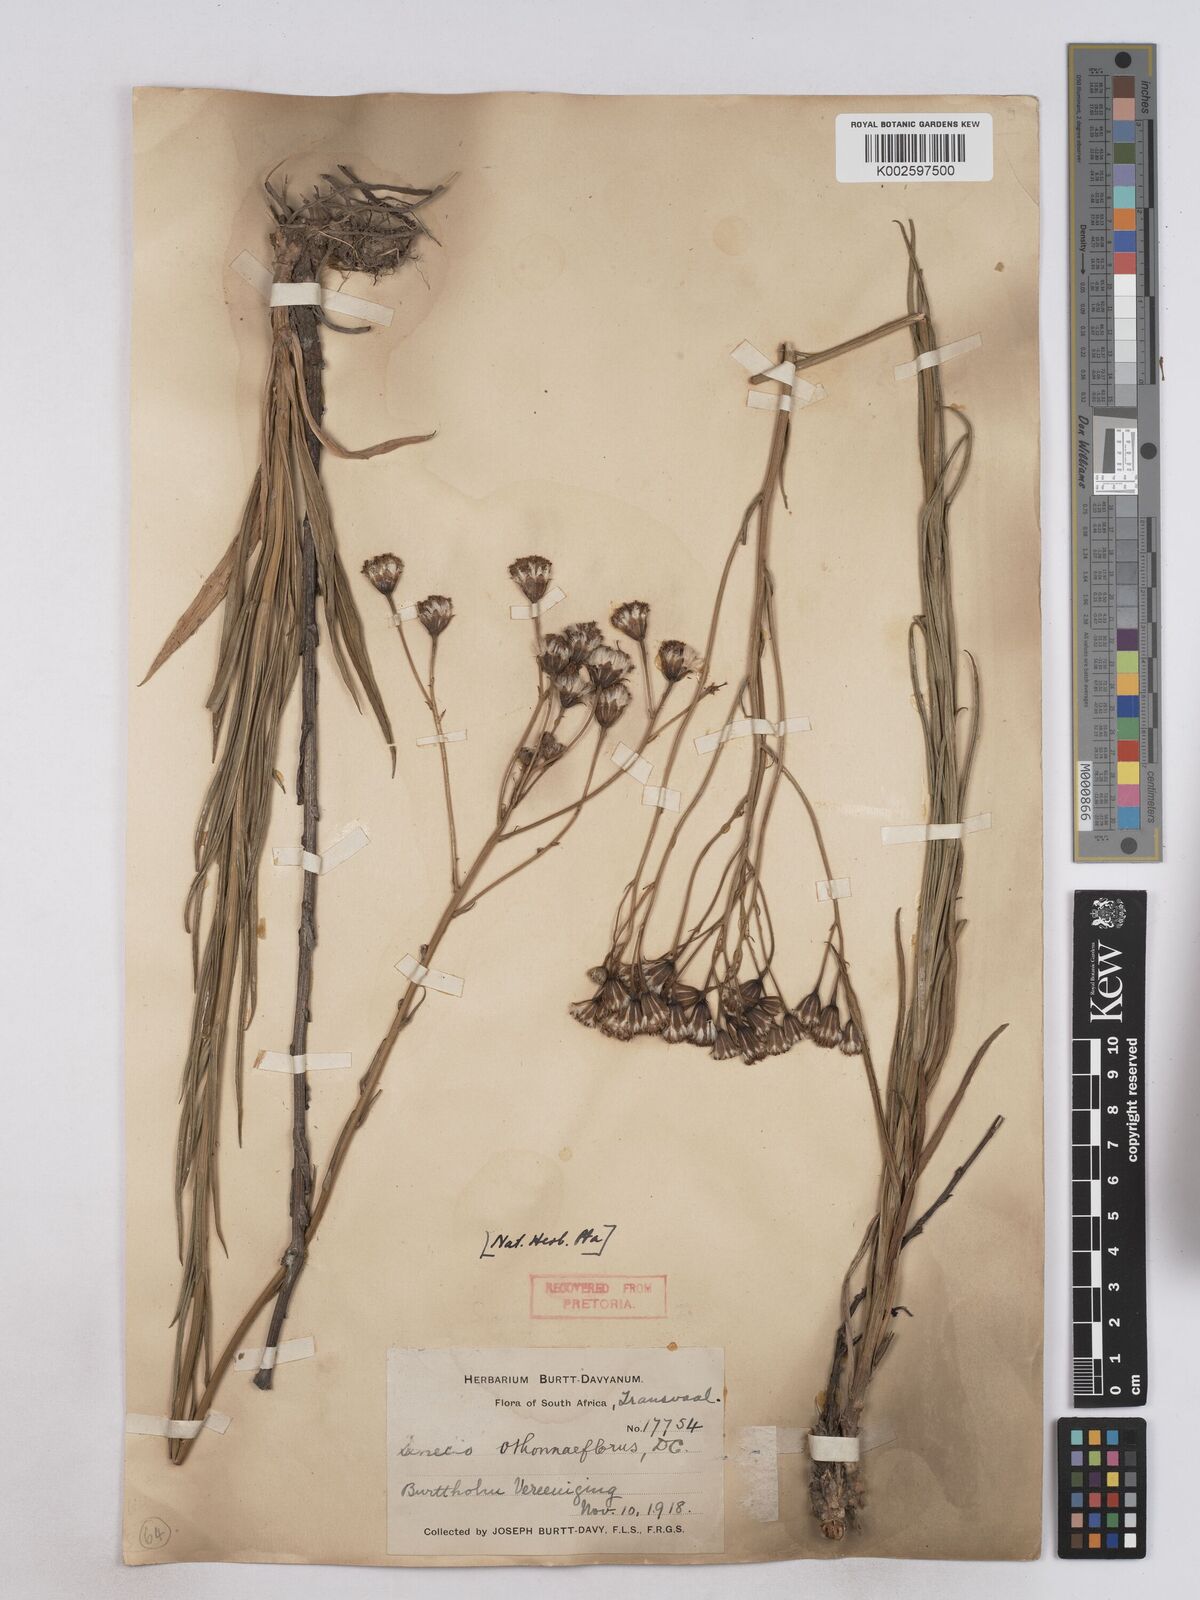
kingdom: Plantae
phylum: Tracheophyta
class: Magnoliopsida
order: Asterales
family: Asteraceae
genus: Senecio
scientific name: Senecio othonniflorus
